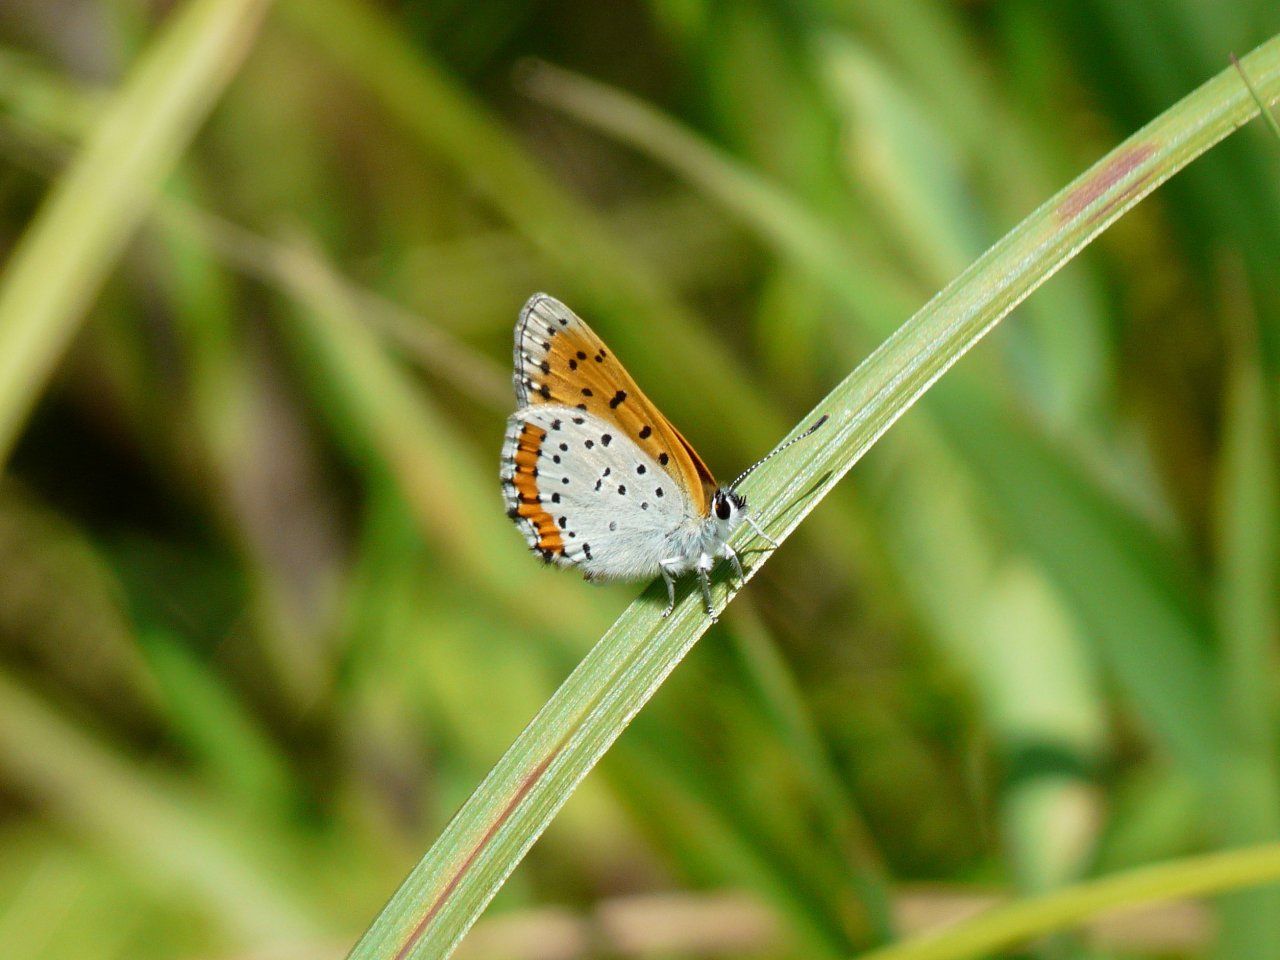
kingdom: Animalia
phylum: Arthropoda
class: Insecta
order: Lepidoptera
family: Sesiidae
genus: Sesia
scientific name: Sesia Lycaena hyllus
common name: Bronze Copper
